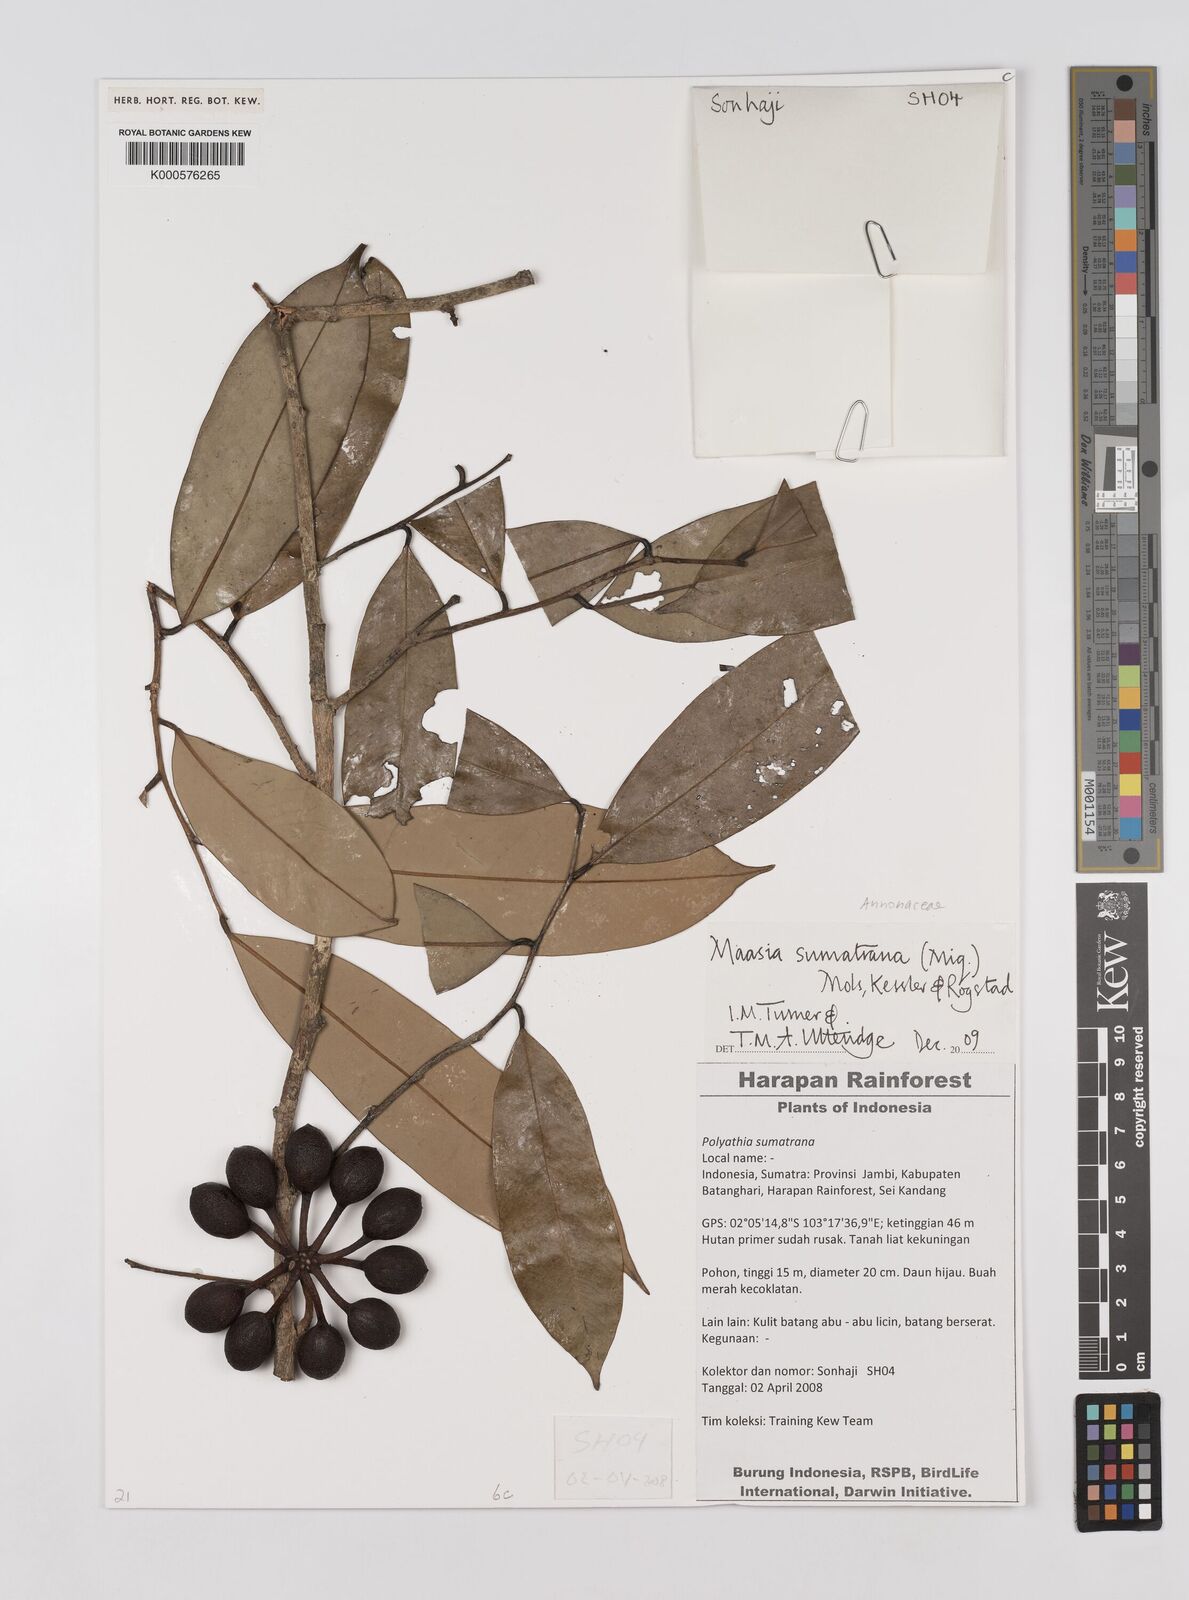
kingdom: Plantae
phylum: Tracheophyta
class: Magnoliopsida
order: Magnoliales
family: Annonaceae
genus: Maasia
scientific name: Maasia sumatrana
